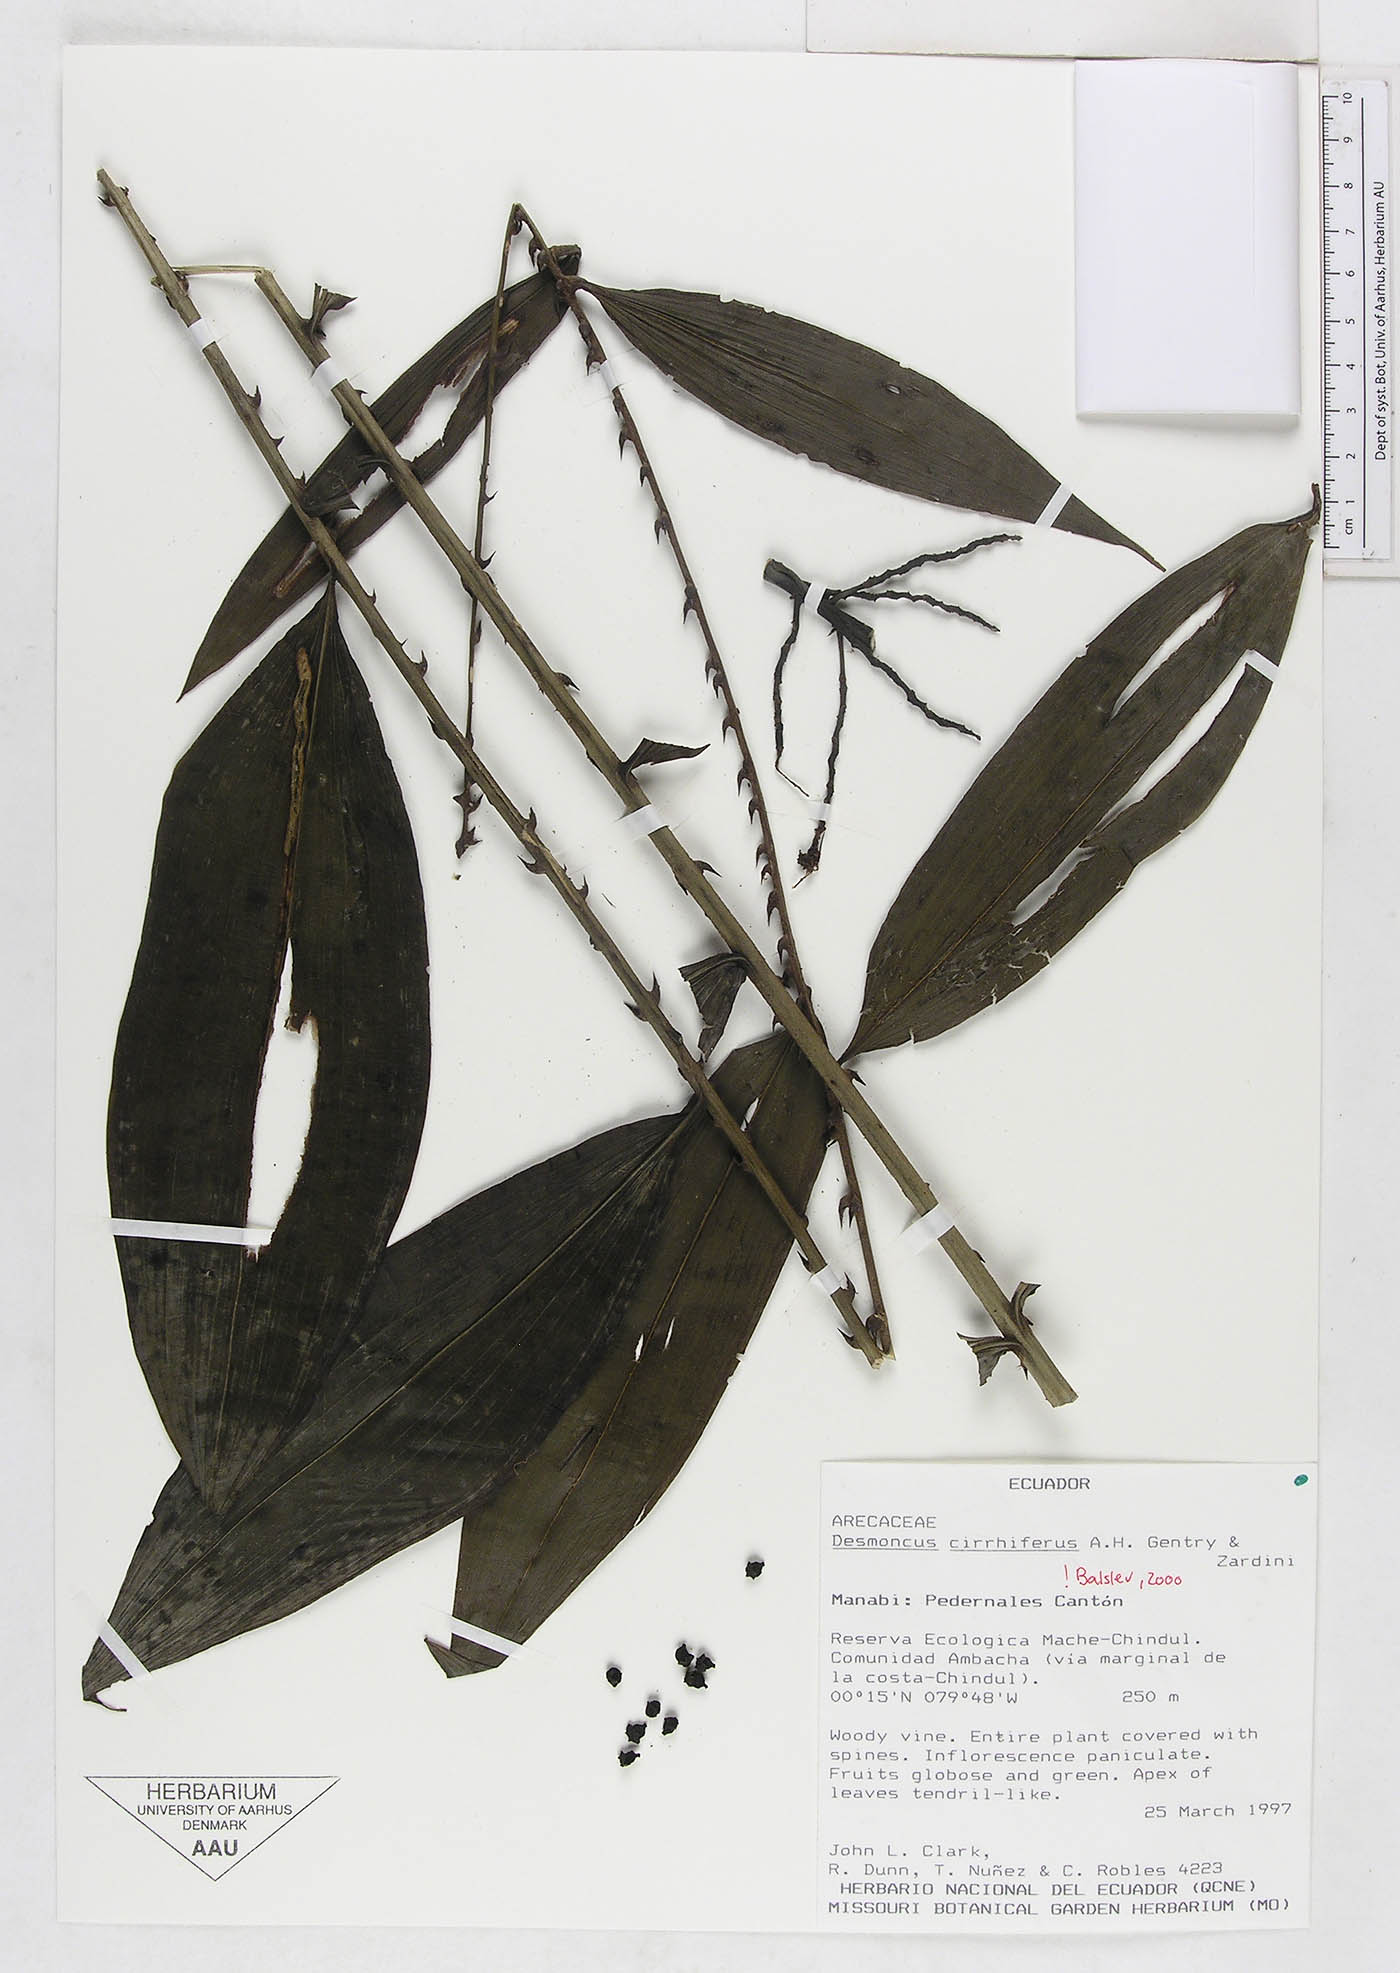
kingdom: Plantae
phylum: Tracheophyta
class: Liliopsida
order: Arecales
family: Arecaceae
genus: Desmoncus
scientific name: Desmoncus cirrhiferus
